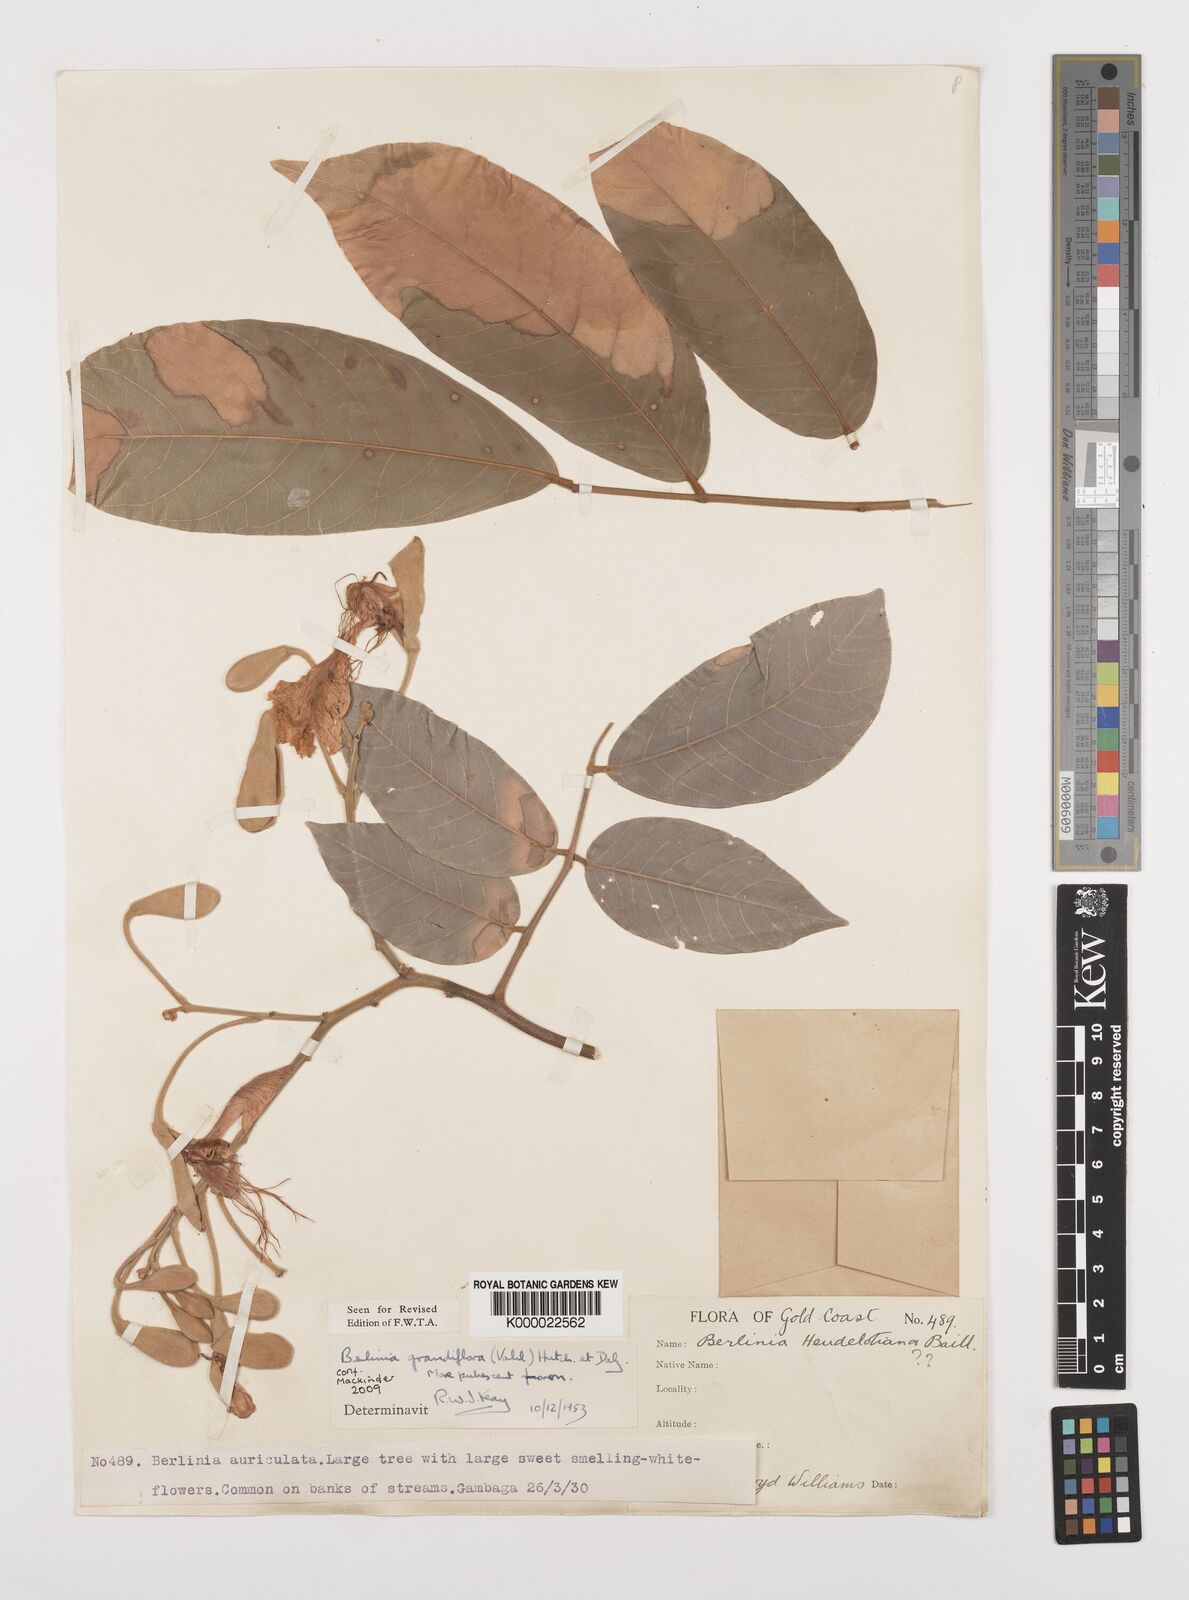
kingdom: Plantae
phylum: Tracheophyta
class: Magnoliopsida
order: Fabales
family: Fabaceae
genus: Berlinia
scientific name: Berlinia grandiflora
